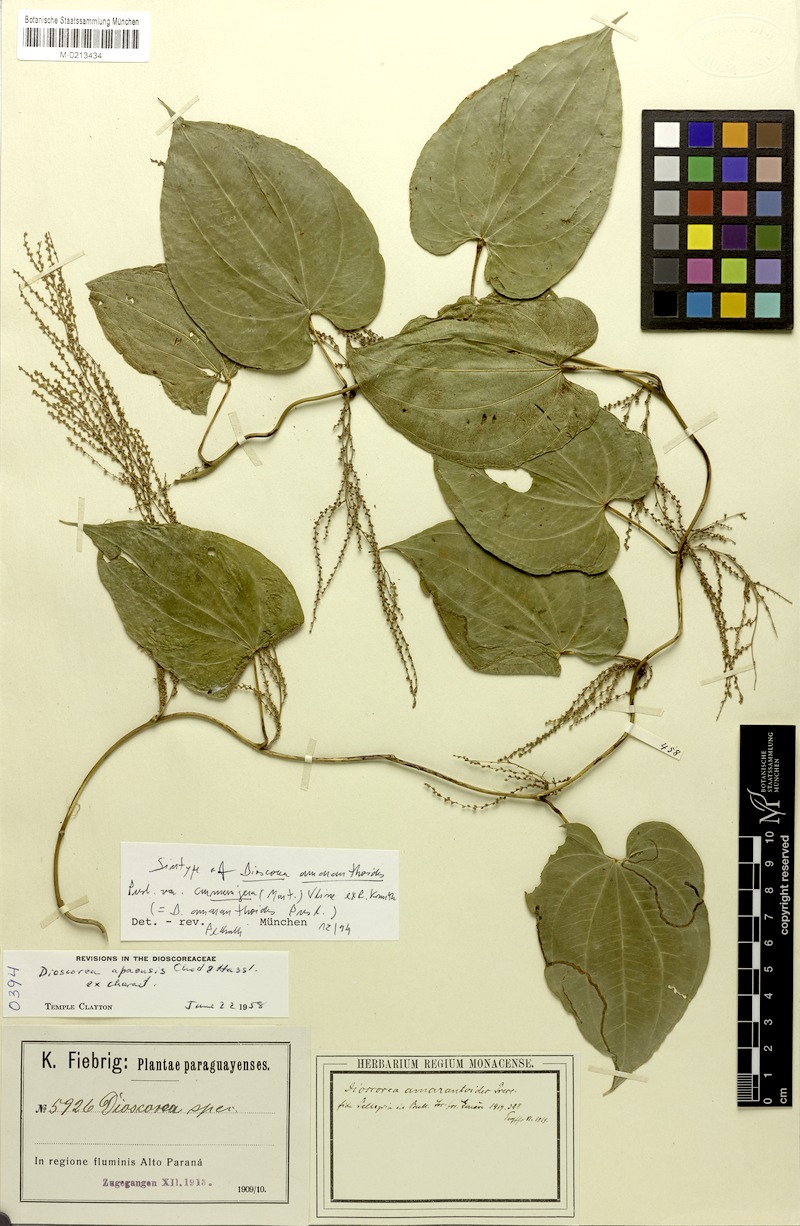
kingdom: Plantae
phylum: Tracheophyta
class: Liliopsida
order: Dioscoreales
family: Dioscoreaceae
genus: Dioscorea
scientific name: Dioscorea amaranthoides
